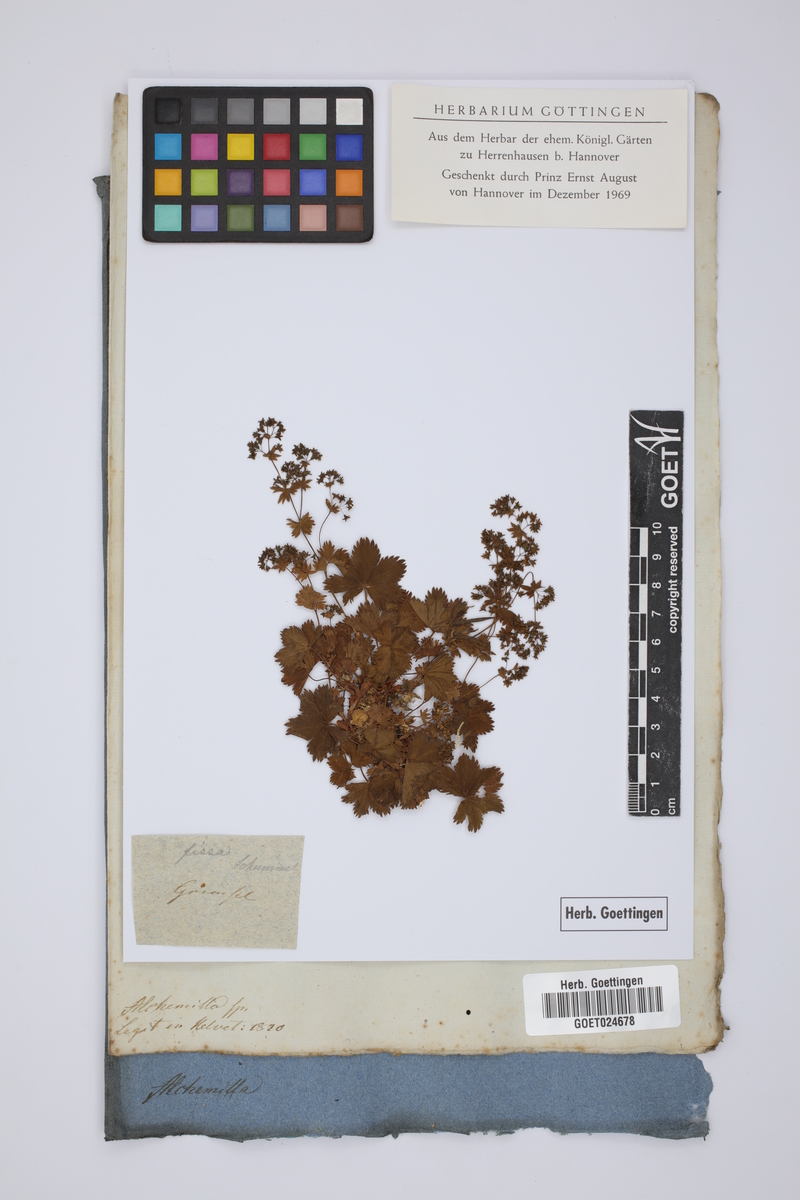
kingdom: Plantae
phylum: Tracheophyta
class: Magnoliopsida
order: Rosales
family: Rosaceae
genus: Alchemilla
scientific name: Alchemilla fissa
